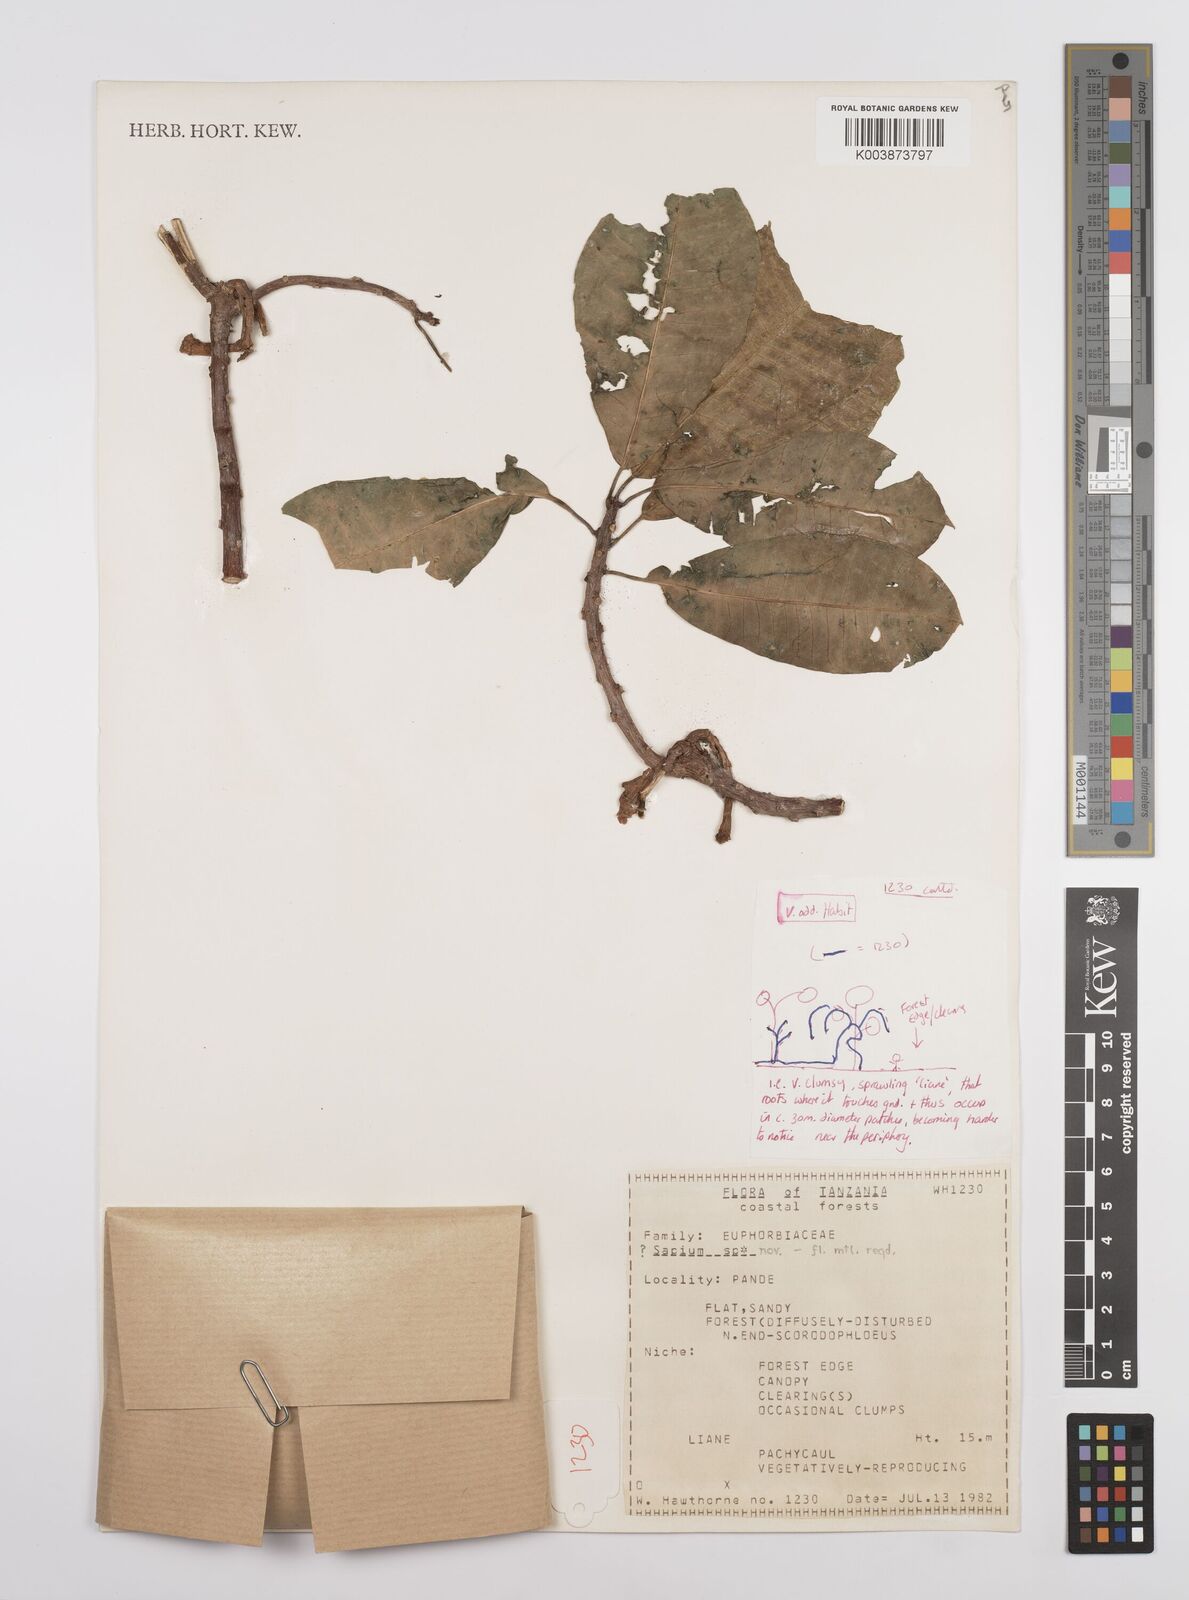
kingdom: Plantae
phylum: Tracheophyta
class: Magnoliopsida
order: Malpighiales
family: Euphorbiaceae
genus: Sapium
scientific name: Sapium
